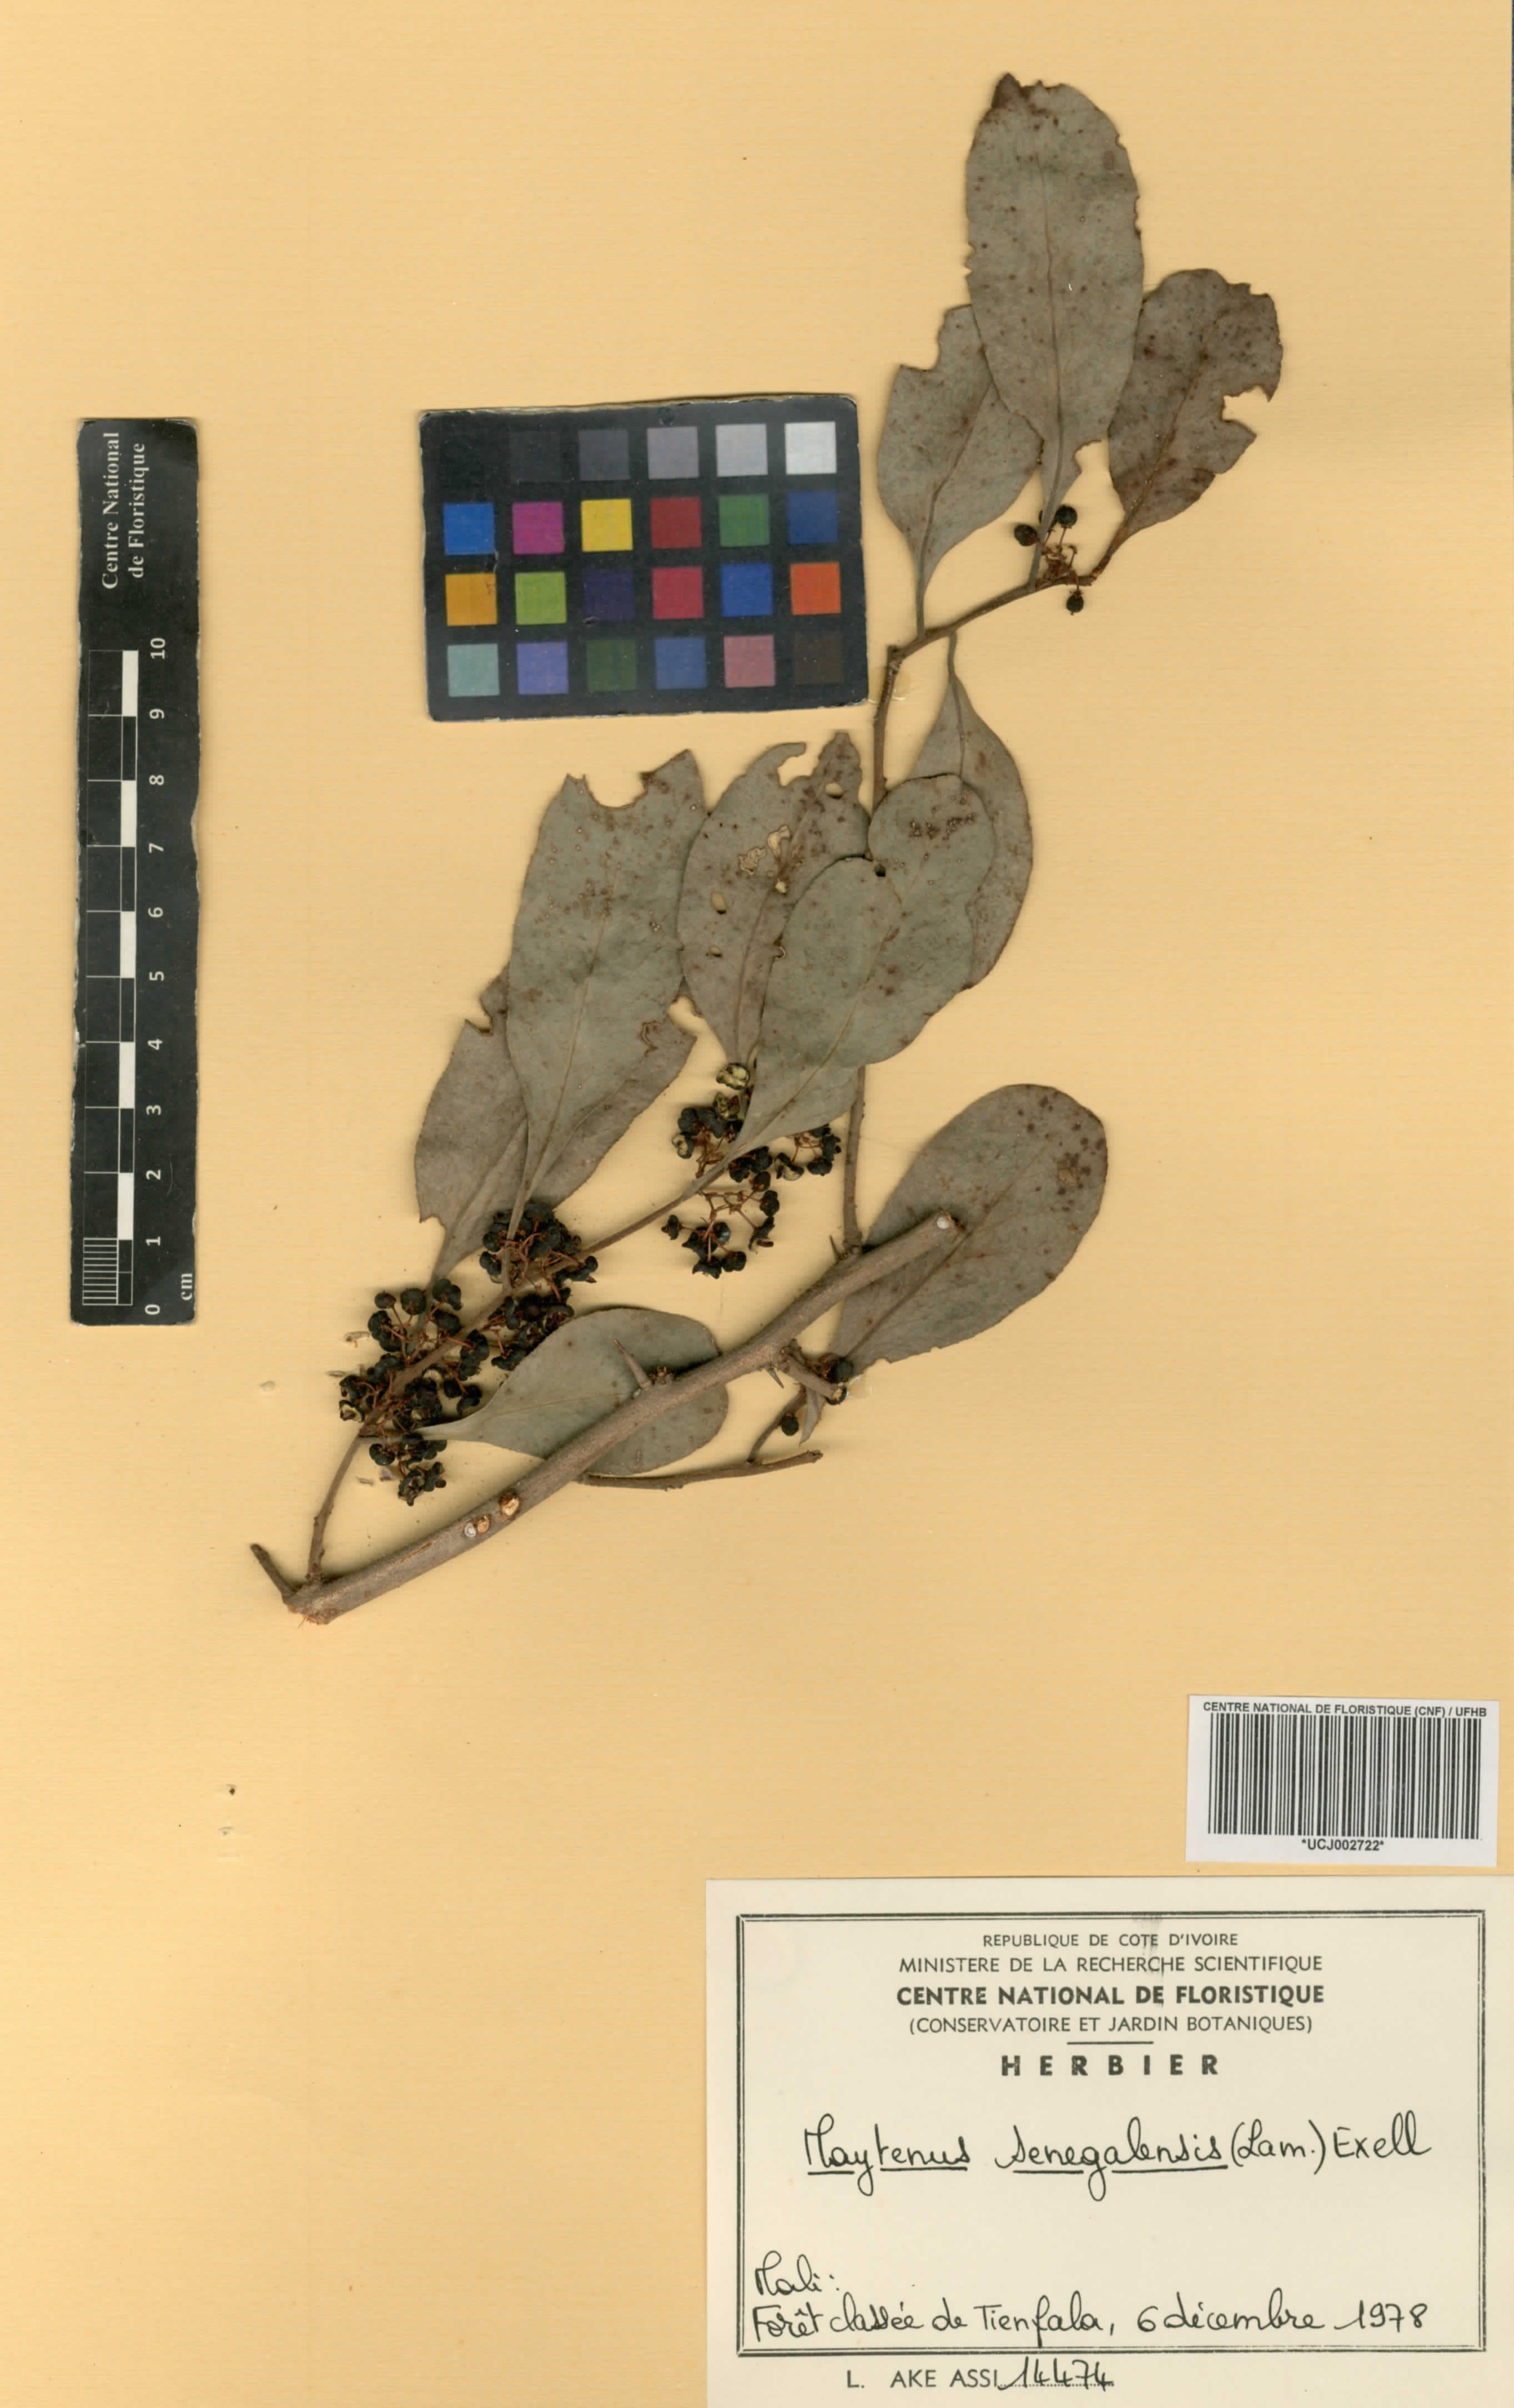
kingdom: Plantae
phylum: Tracheophyta
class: Magnoliopsida
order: Celastrales
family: Celastraceae
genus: Gymnosporia
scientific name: Gymnosporia senegalensis
